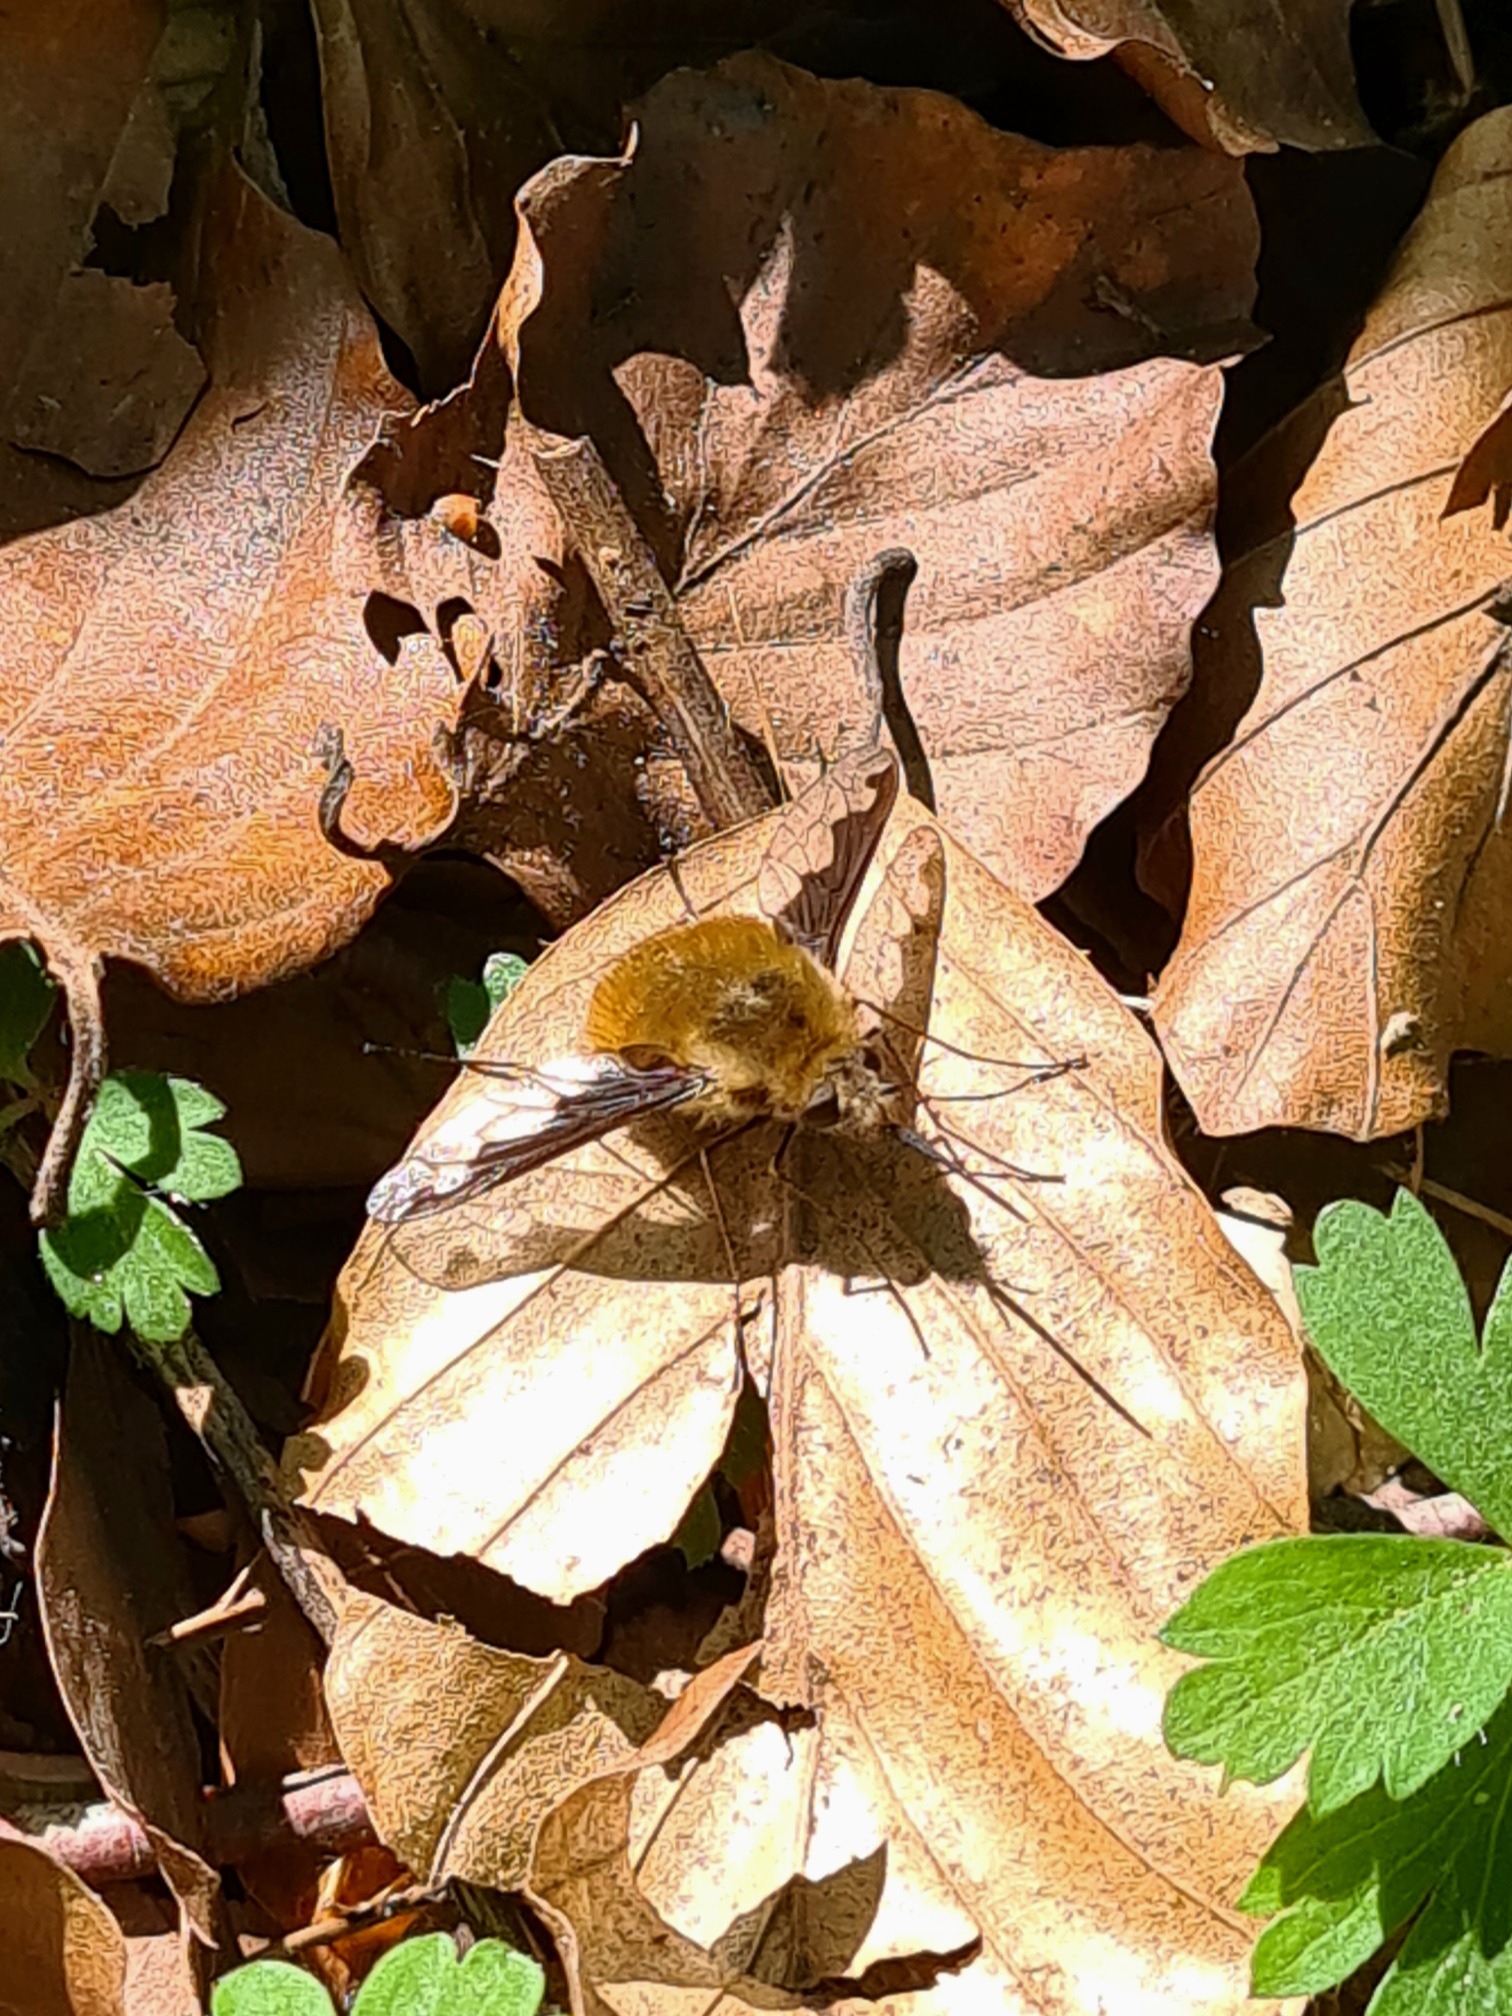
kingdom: Animalia
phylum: Arthropoda
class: Insecta
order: Diptera
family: Bombyliidae
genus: Bombylius
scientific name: Bombylius major
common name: Stor humleflue
